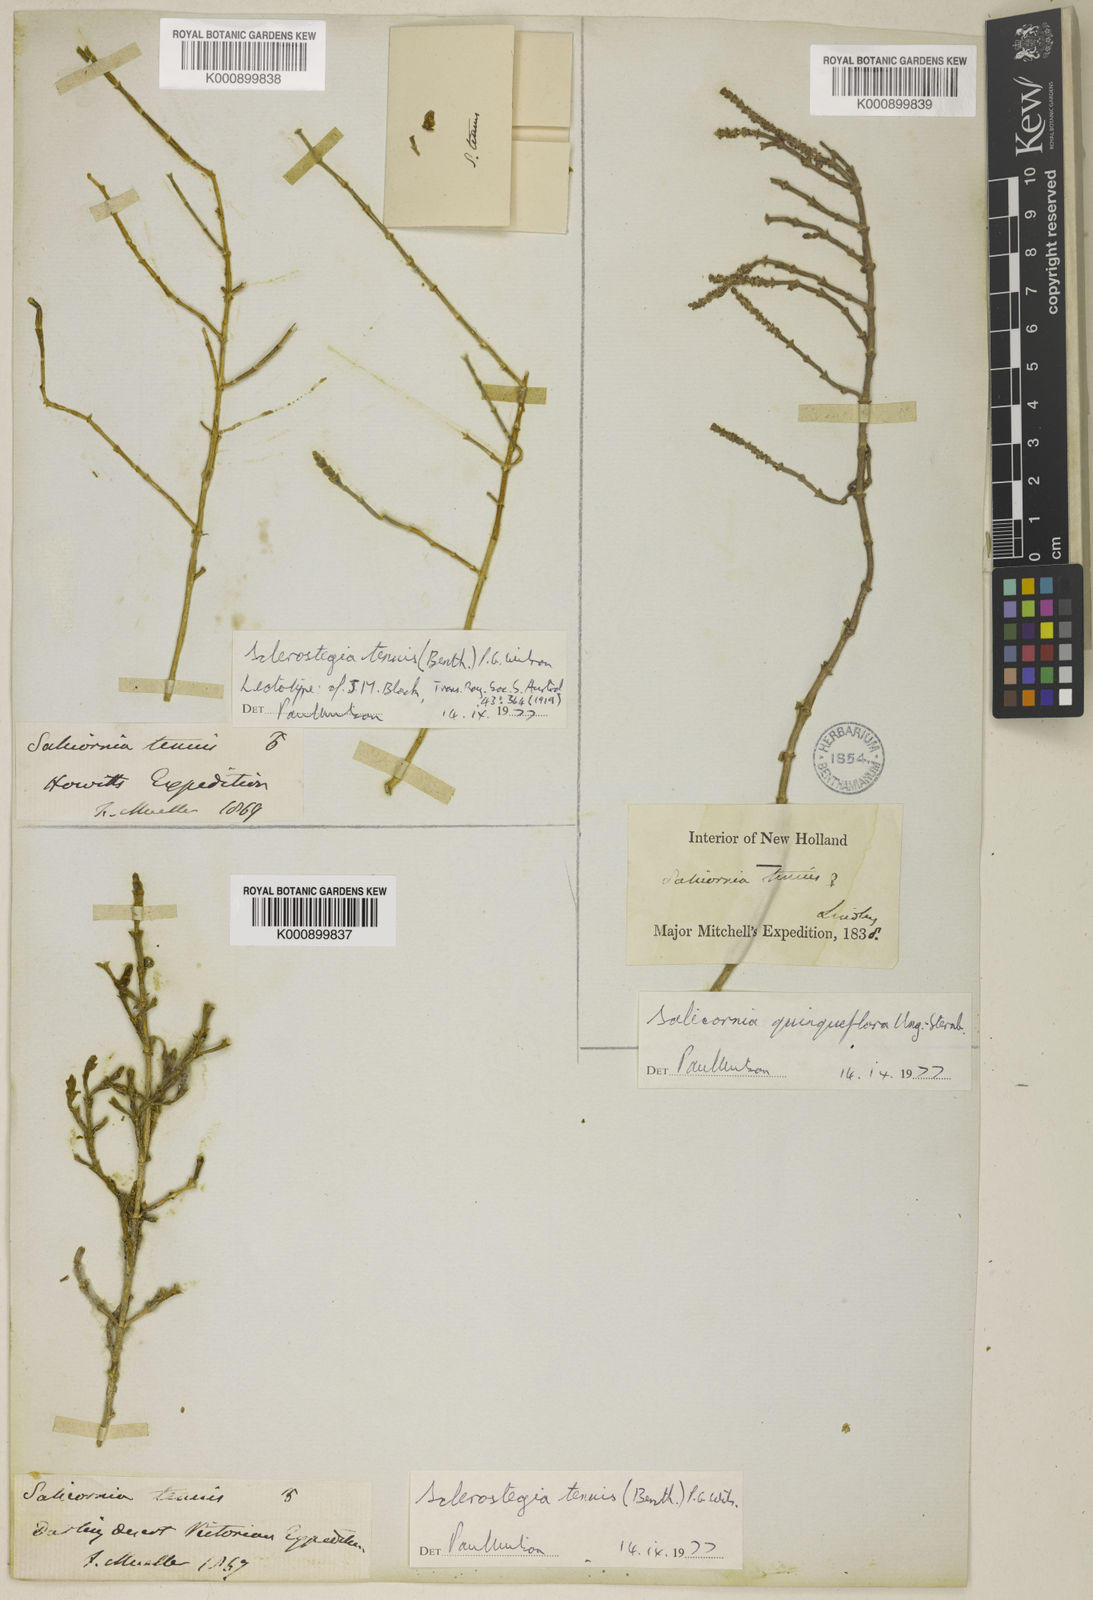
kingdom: Plantae
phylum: Tracheophyta
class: Magnoliopsida
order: Caryophyllales
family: Amaranthaceae
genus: Tecticornia
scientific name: Tecticornia tenuis
